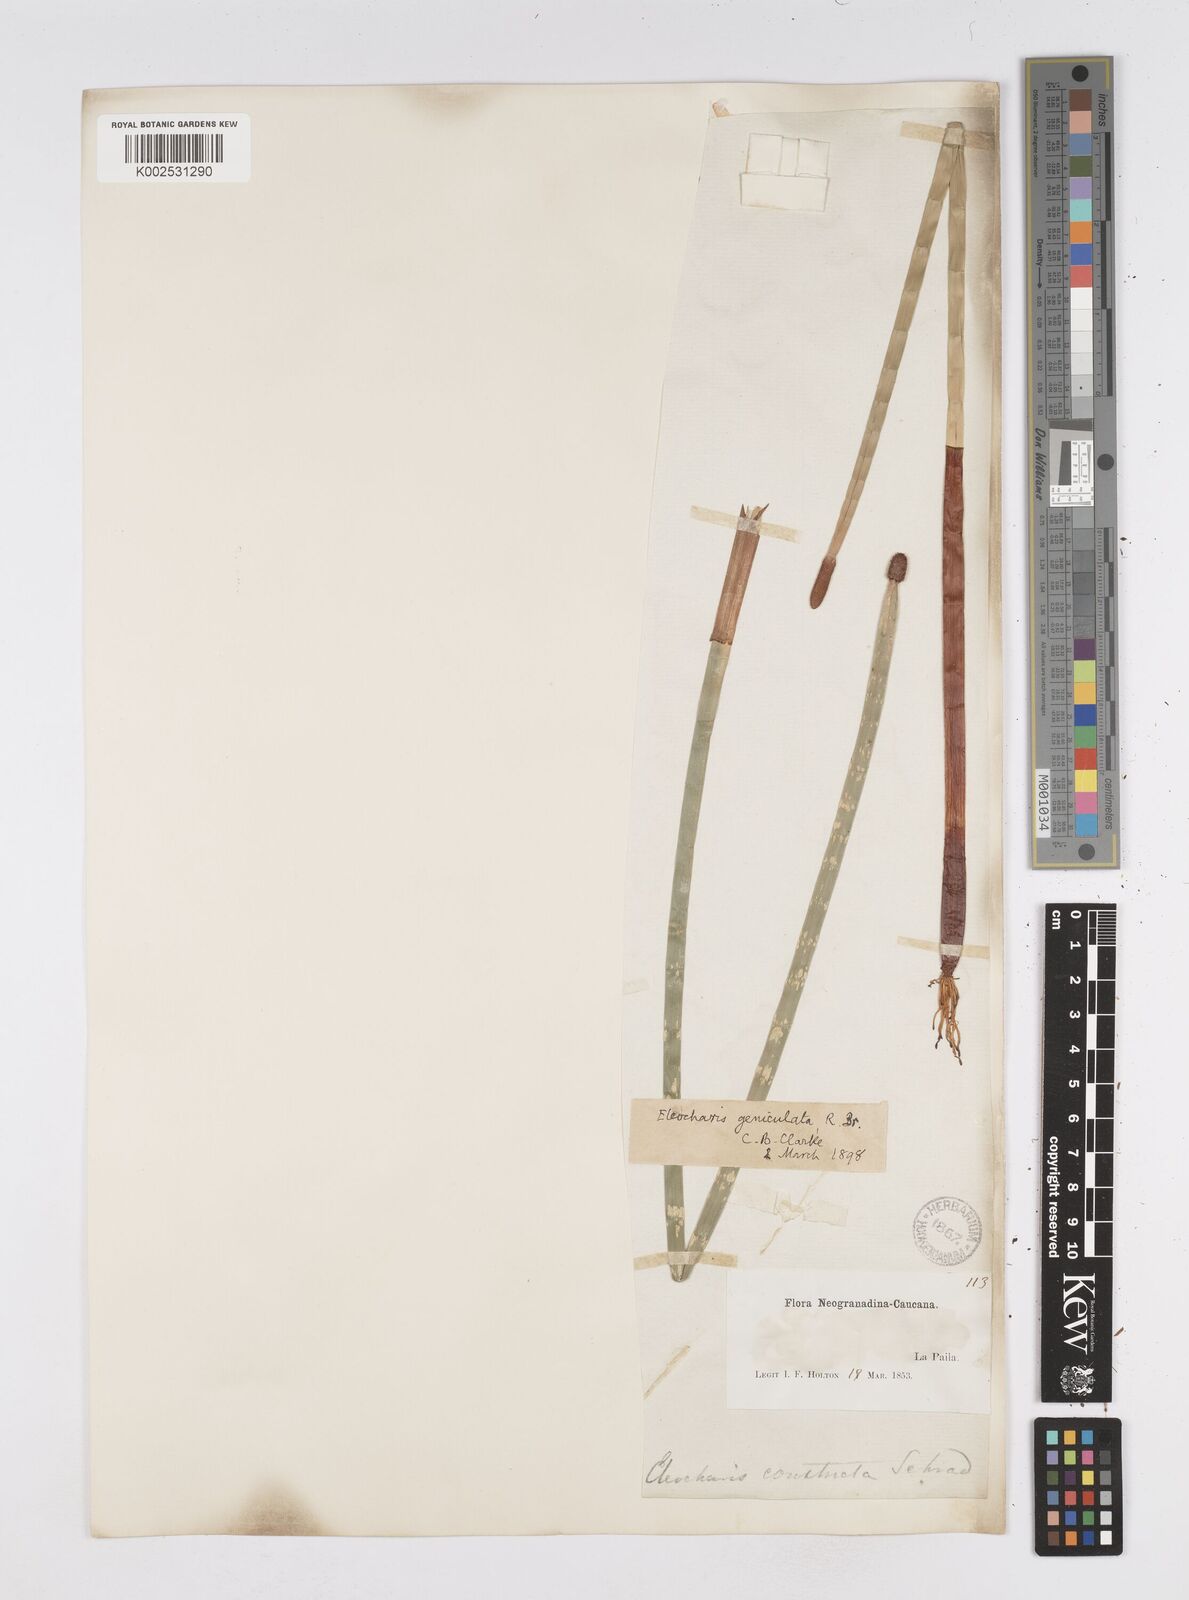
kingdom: Plantae
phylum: Tracheophyta
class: Liliopsida
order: Poales
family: Cyperaceae
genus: Eleocharis
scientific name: Eleocharis elegans
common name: Elegant spike-rush
